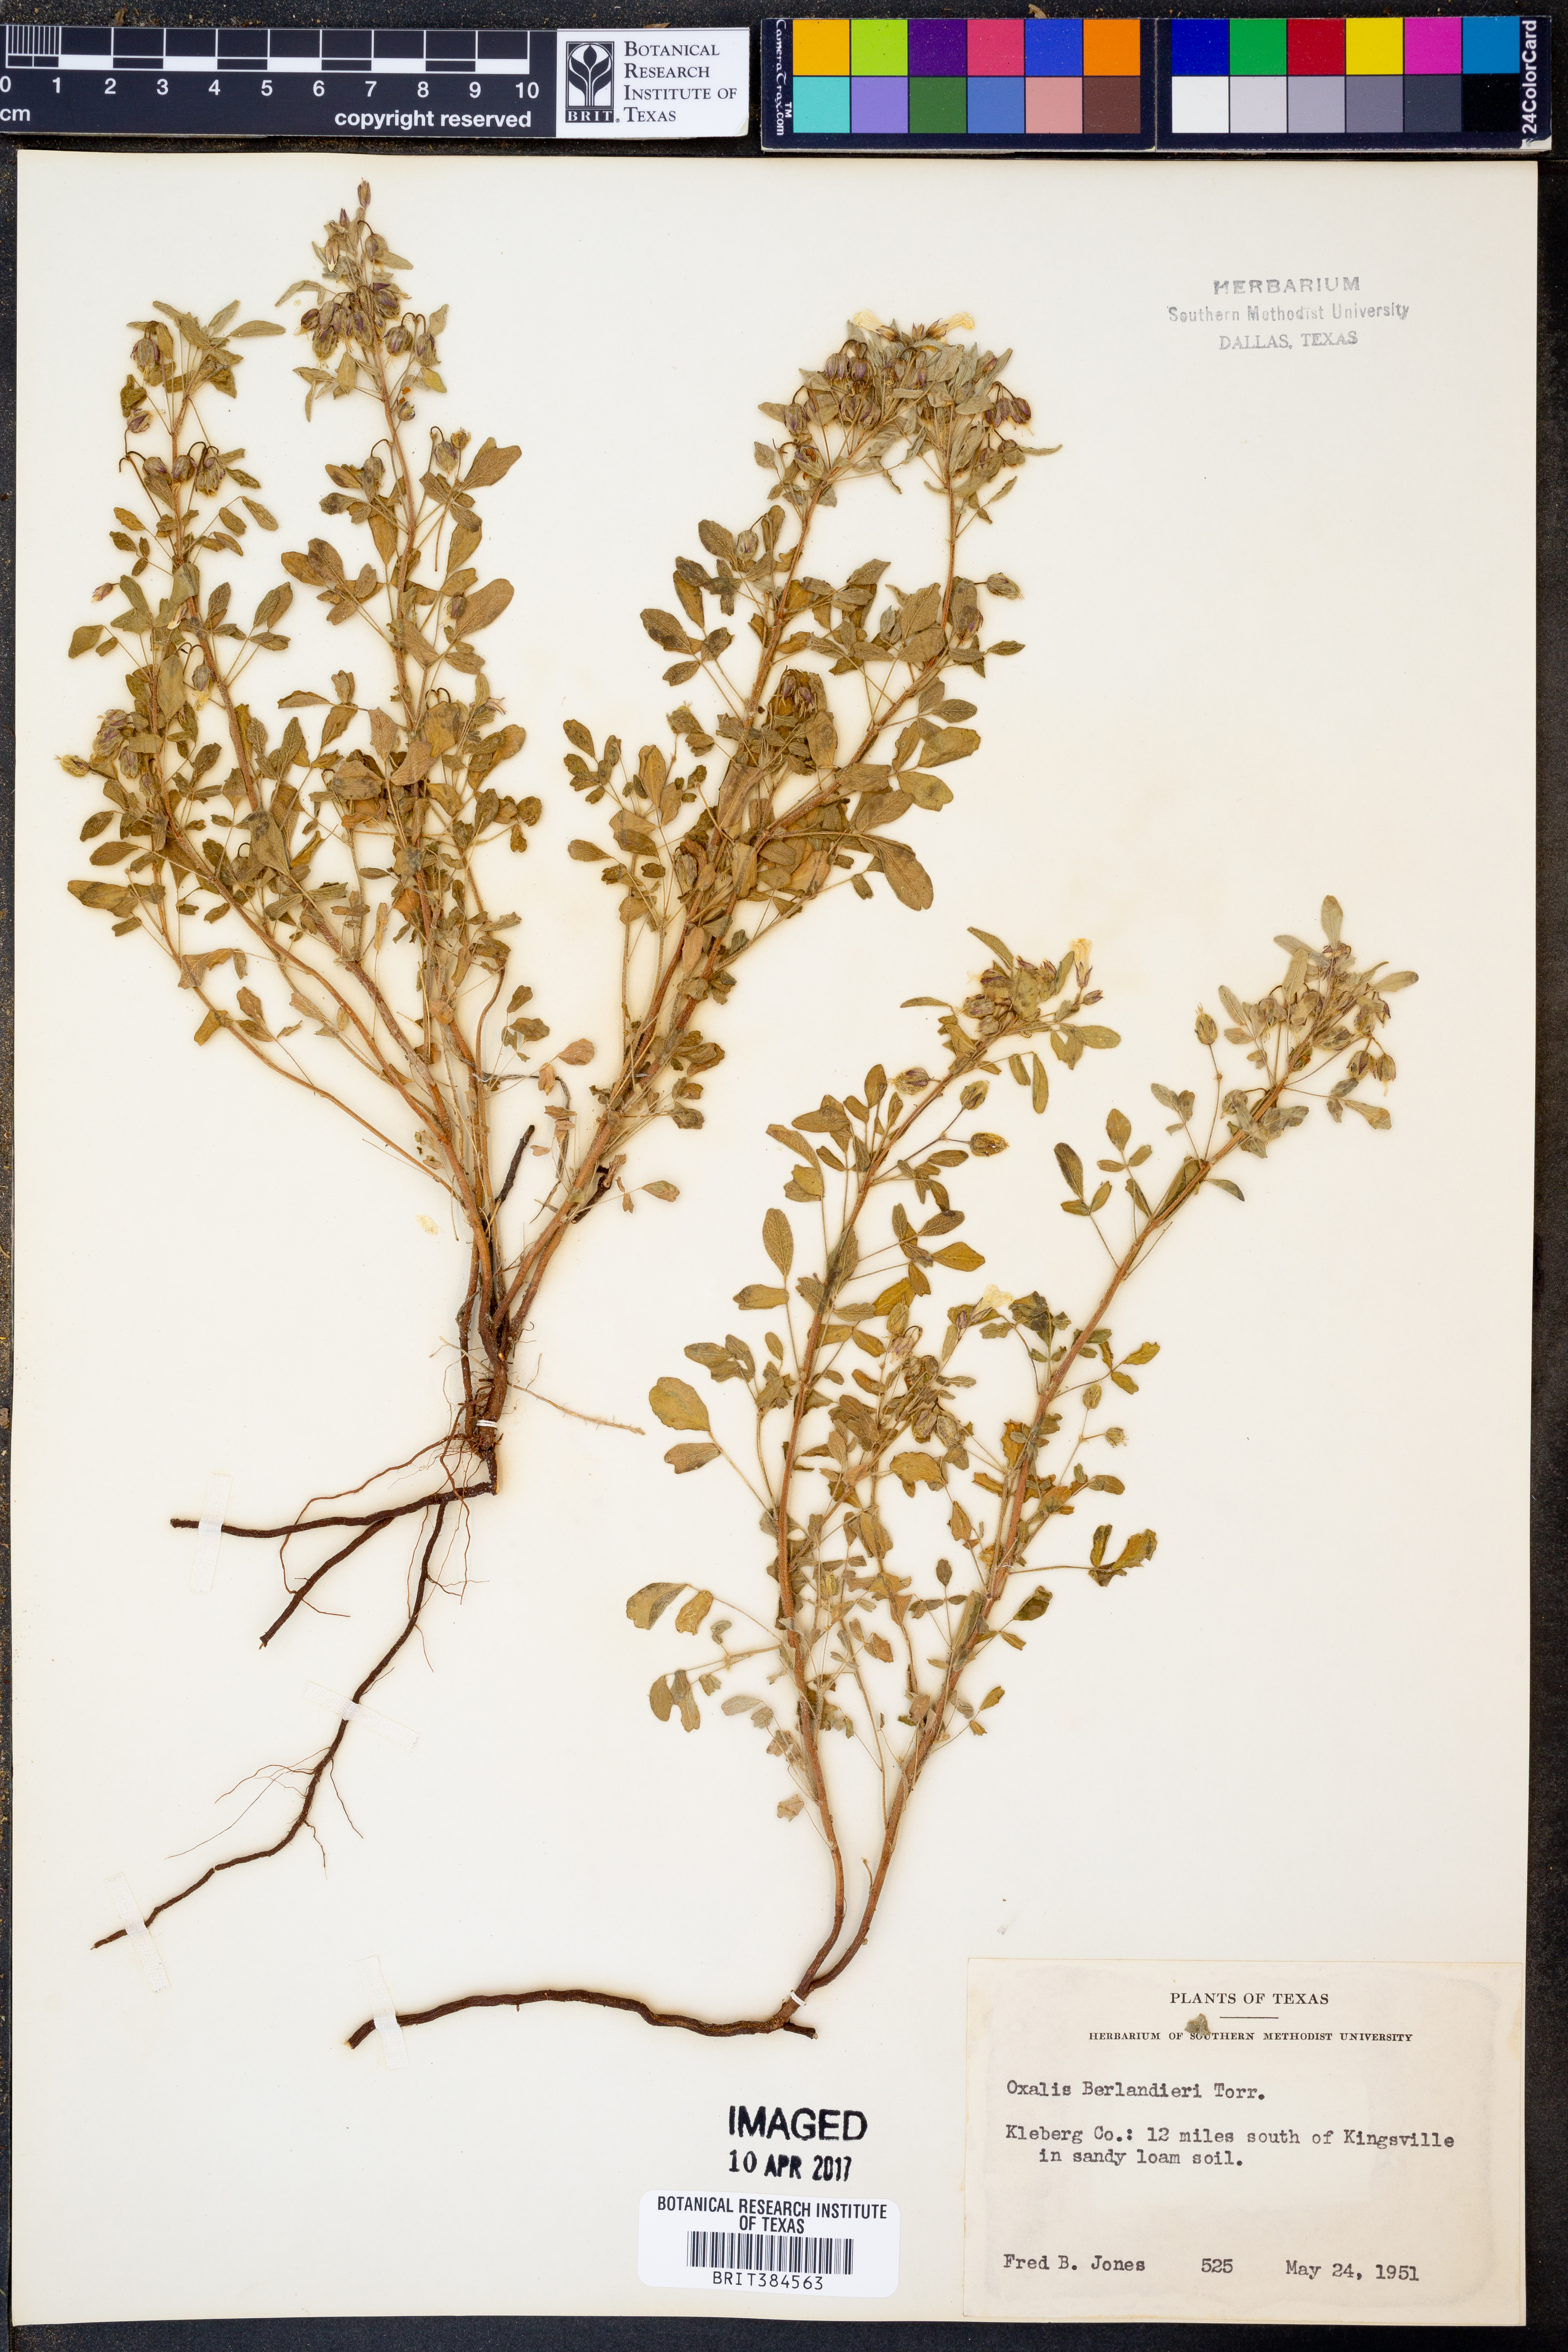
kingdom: Plantae
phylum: Tracheophyta
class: Magnoliopsida
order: Oxalidales
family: Oxalidaceae
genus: Oxalis
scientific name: Oxalis frutescens
